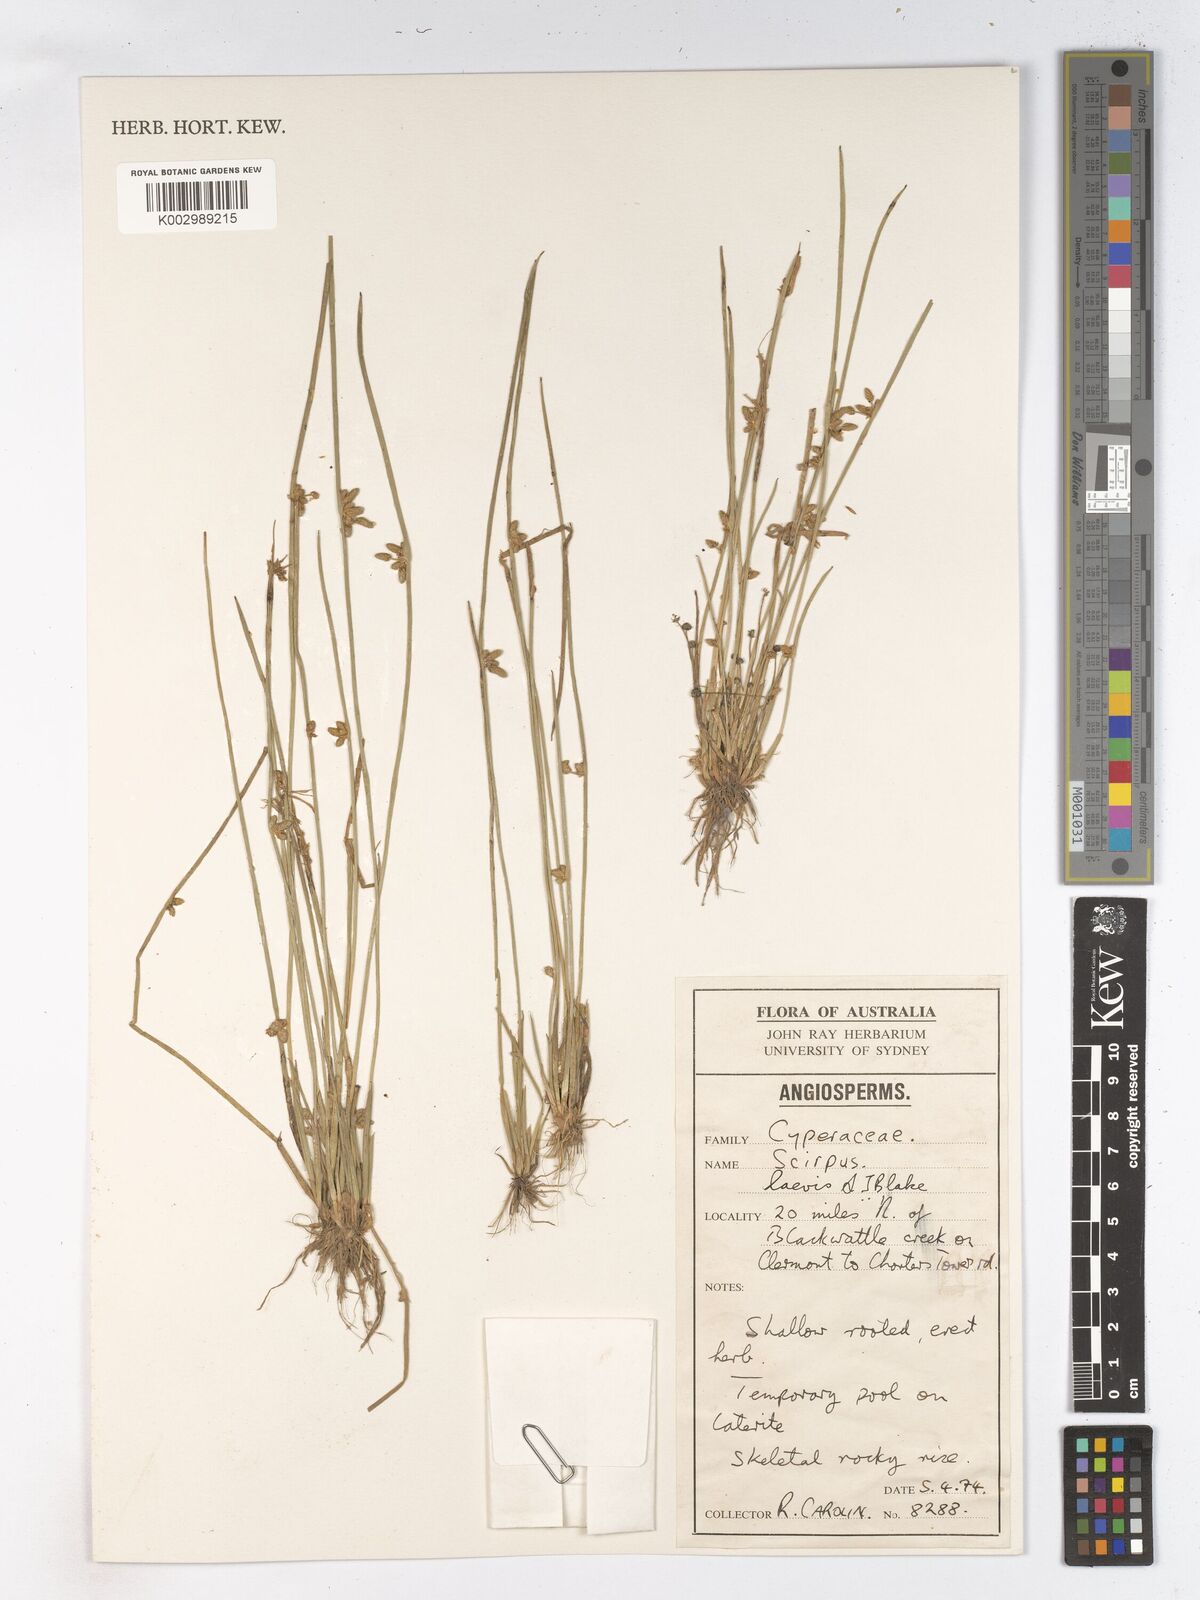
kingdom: Plantae
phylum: Tracheophyta
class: Liliopsida
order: Poales
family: Cyperaceae
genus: Schoenoplectiella
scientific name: Schoenoplectiella laevis
